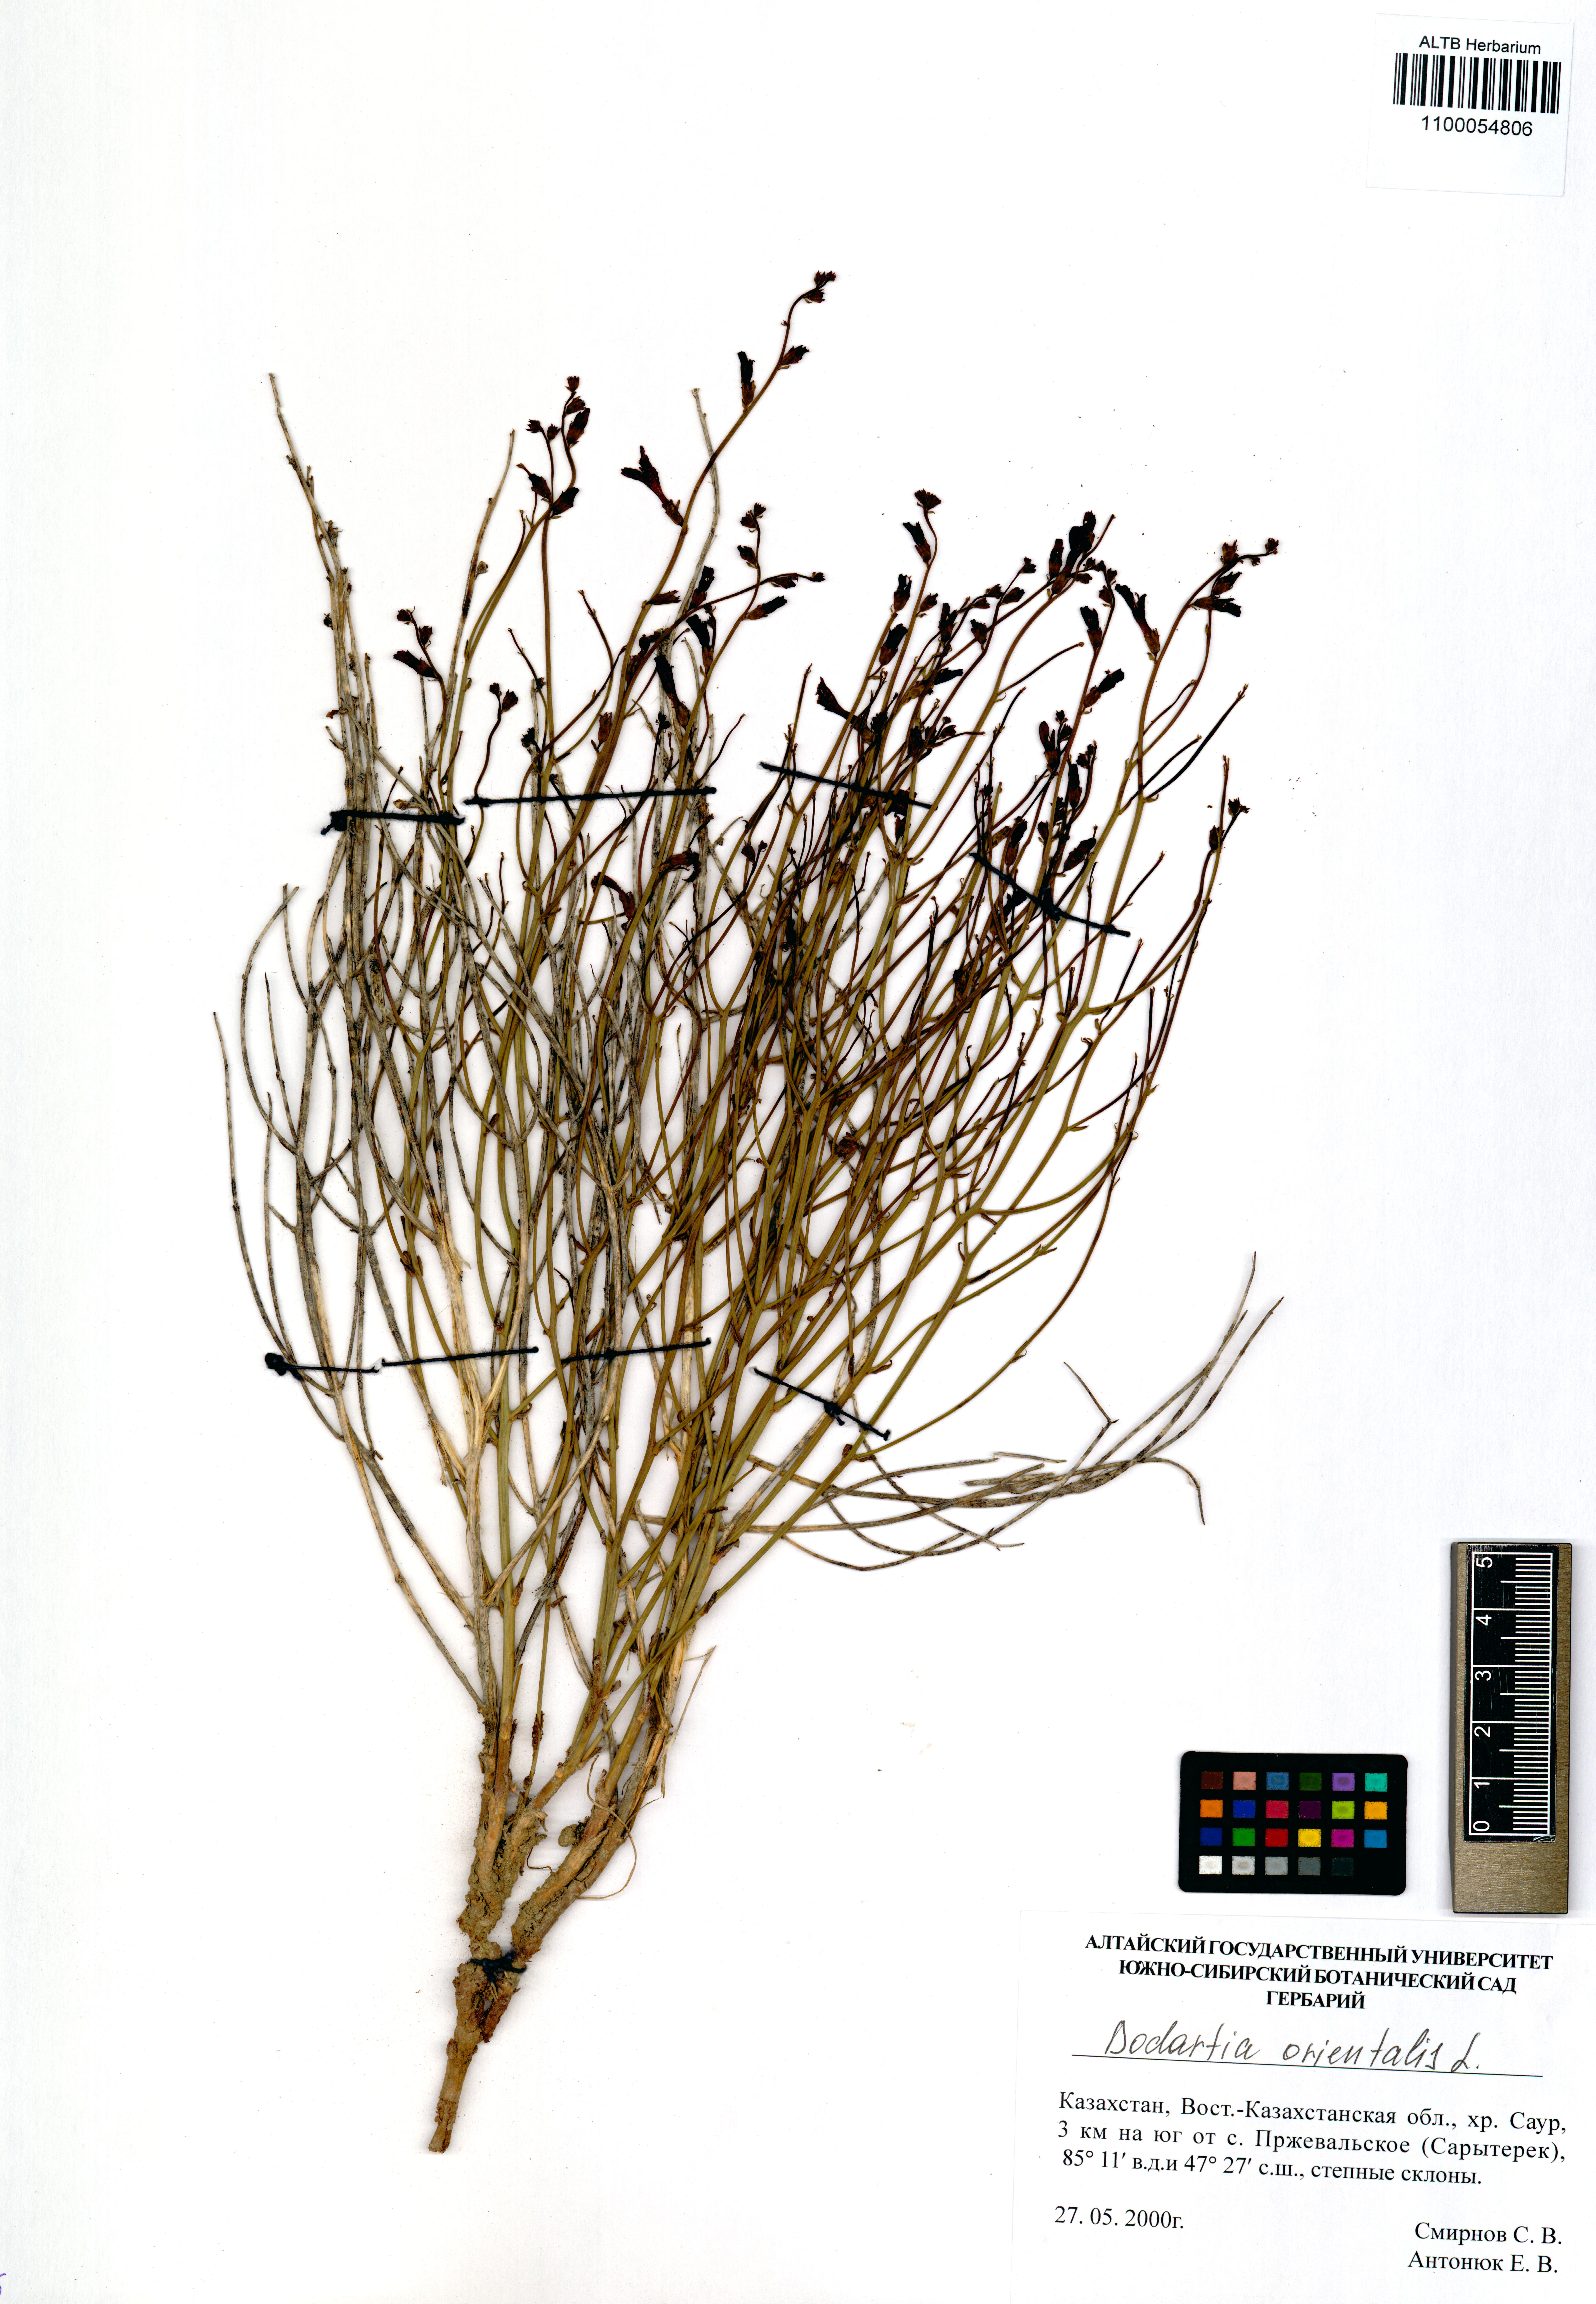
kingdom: Plantae
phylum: Tracheophyta
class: Magnoliopsida
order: Lamiales
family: Mazaceae
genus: Dodartia
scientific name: Dodartia orientalis
